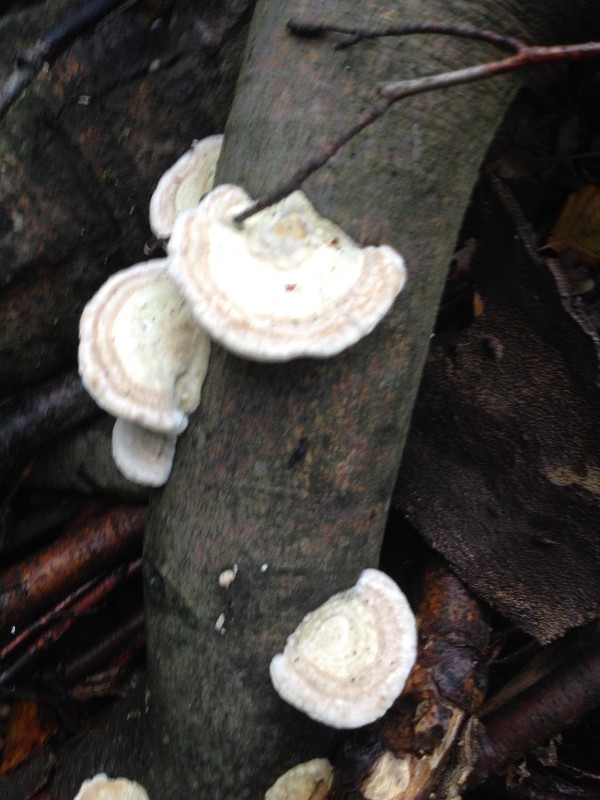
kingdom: Fungi
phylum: Basidiomycota
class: Agaricomycetes
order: Polyporales
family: Polyporaceae
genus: Trametes
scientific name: Trametes hirsuta
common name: håret læderporesvamp
